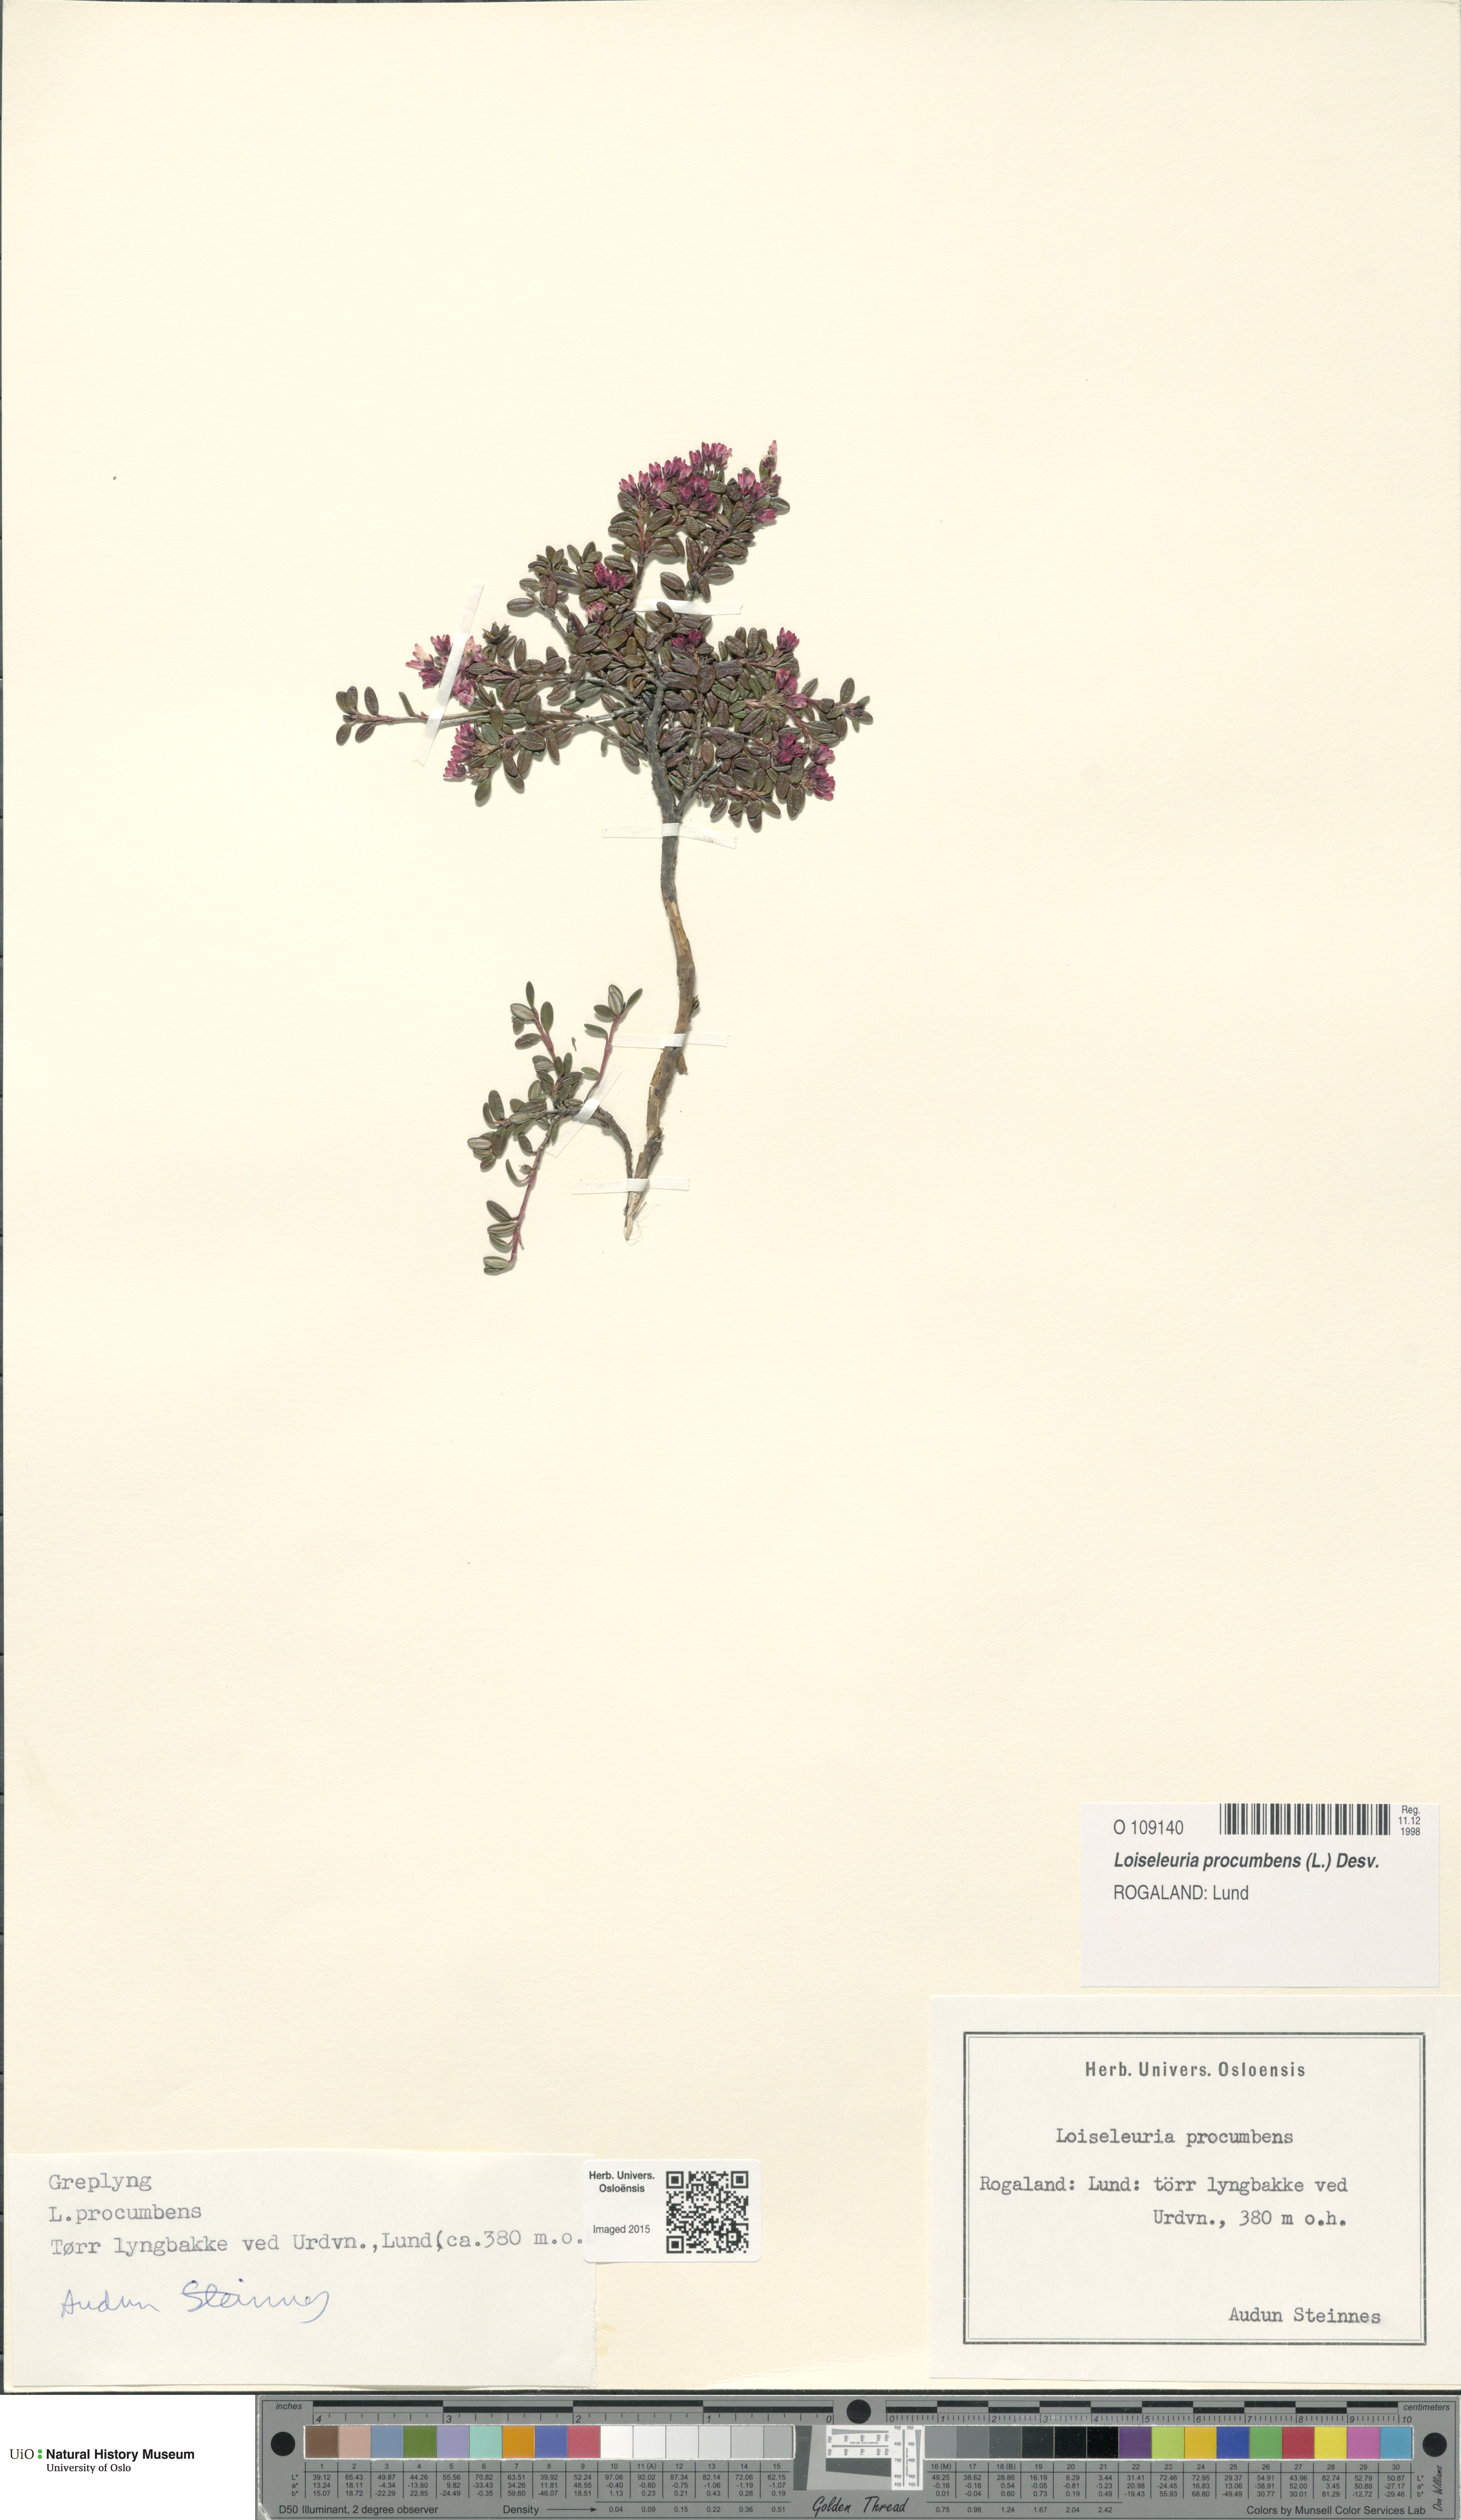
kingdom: Plantae
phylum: Tracheophyta
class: Magnoliopsida
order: Ericales
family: Ericaceae
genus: Kalmia
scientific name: Kalmia procumbens
